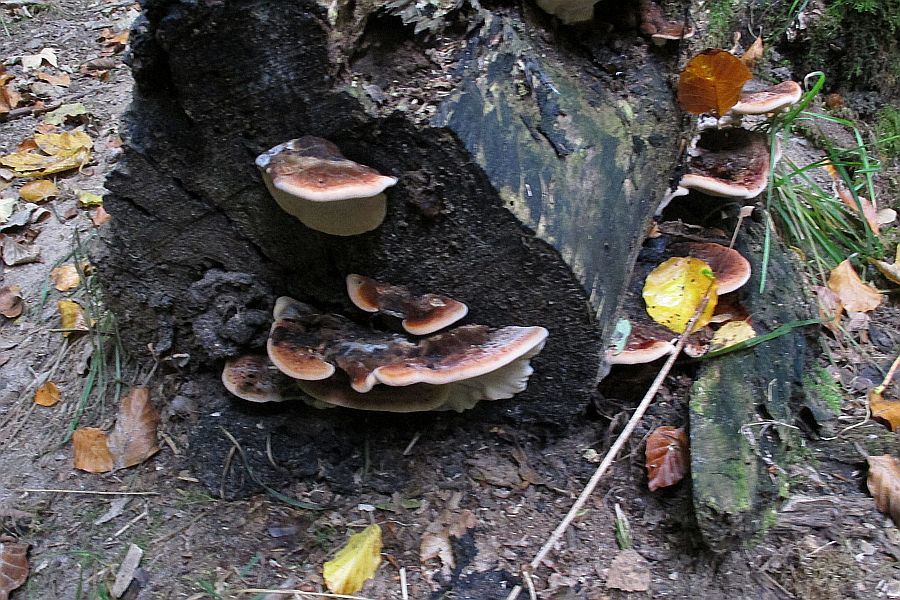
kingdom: Fungi
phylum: Basidiomycota
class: Agaricomycetes
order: Polyporales
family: Ischnodermataceae
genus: Ischnoderma
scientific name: Ischnoderma resinosum
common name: løv-tjæreporesvamp
